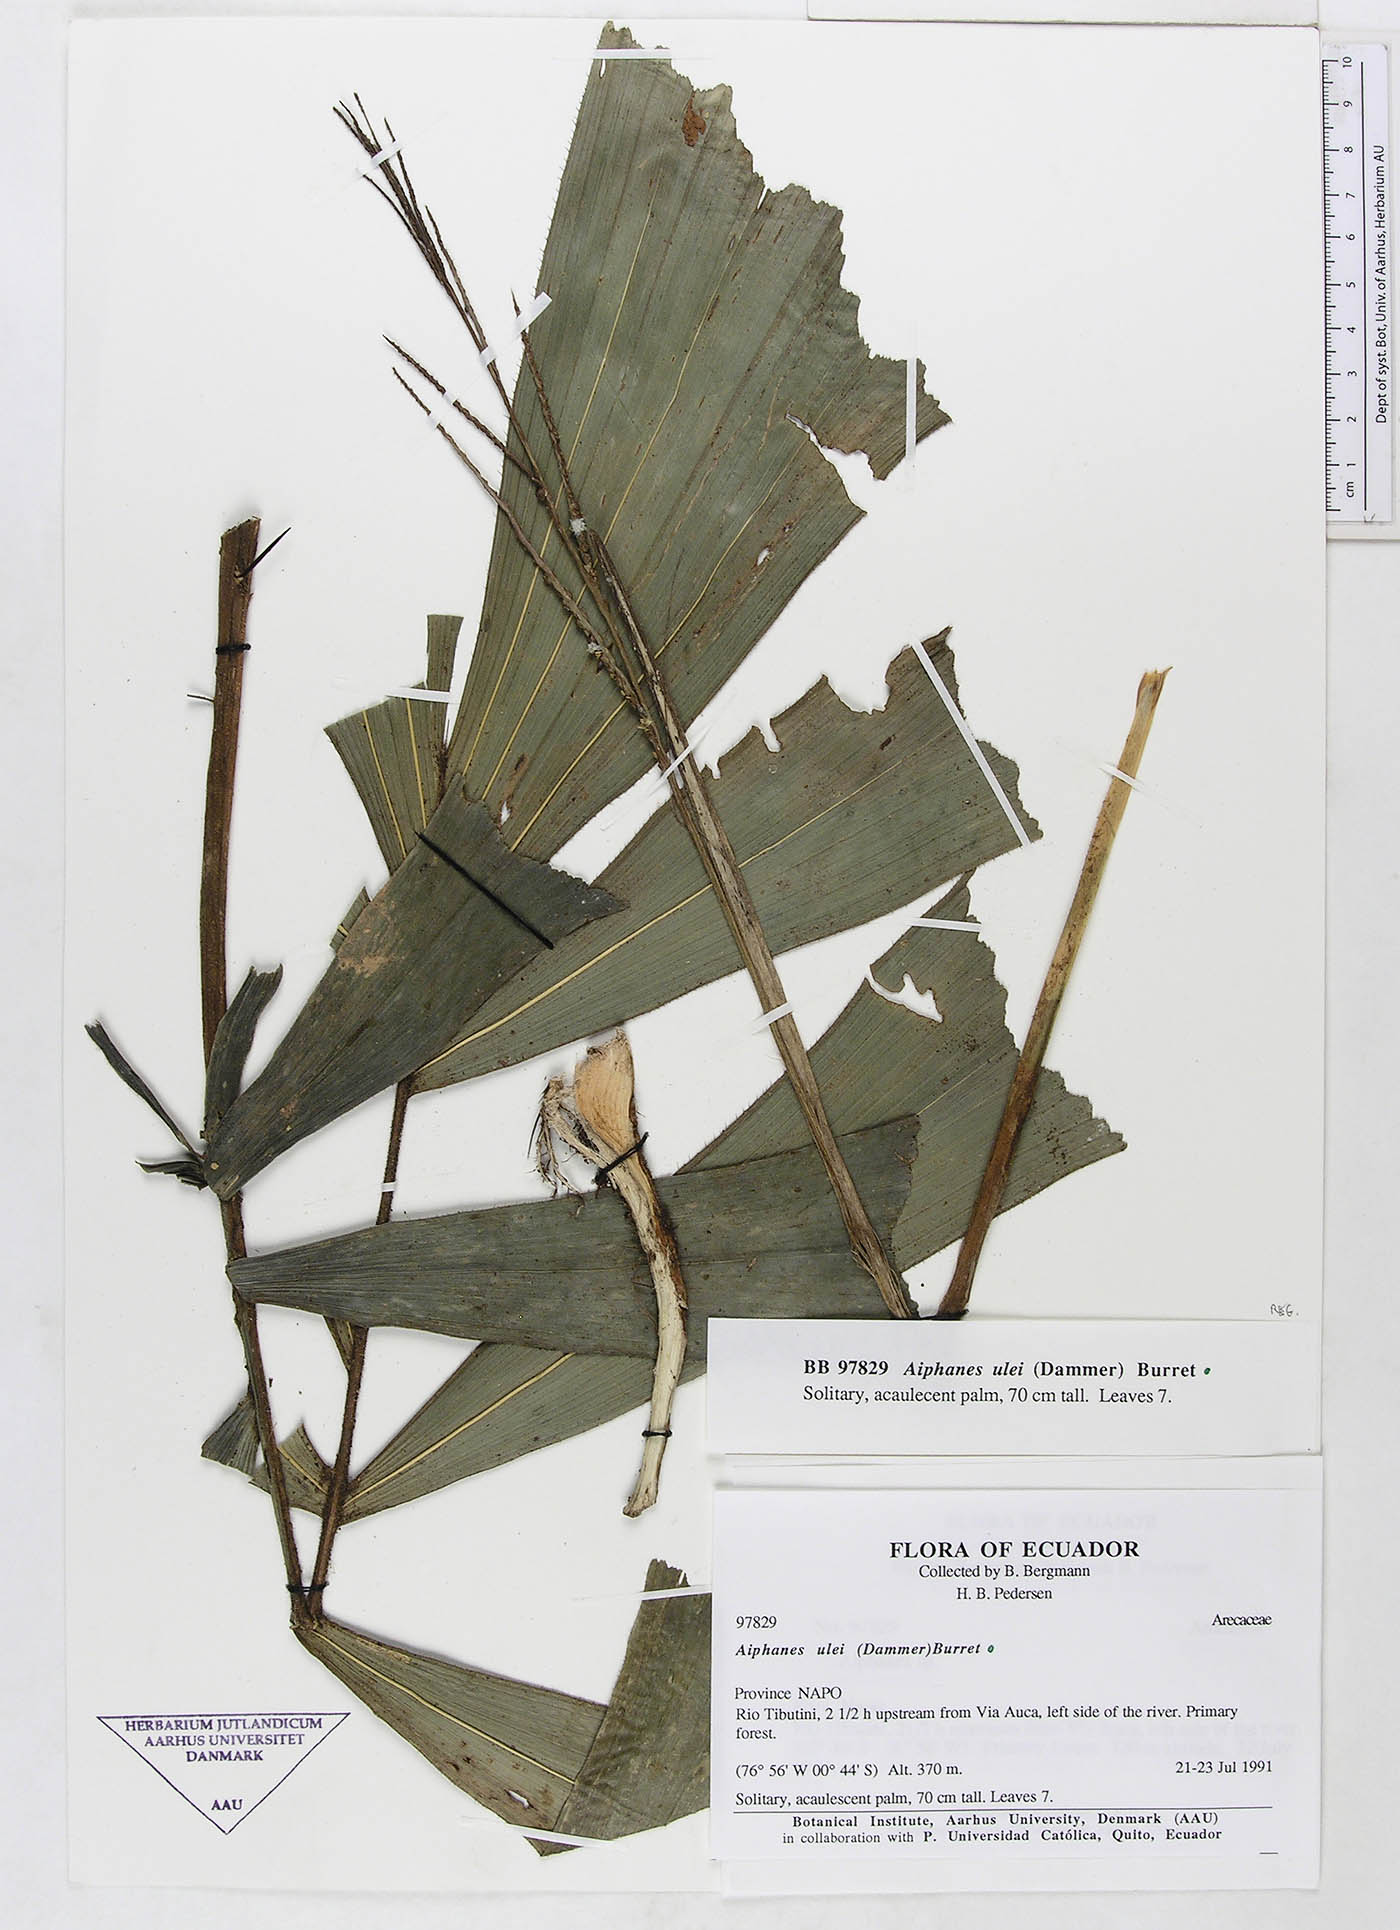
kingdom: Plantae
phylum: Tracheophyta
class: Liliopsida
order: Arecales
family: Arecaceae
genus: Aiphanes
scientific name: Aiphanes ulei
